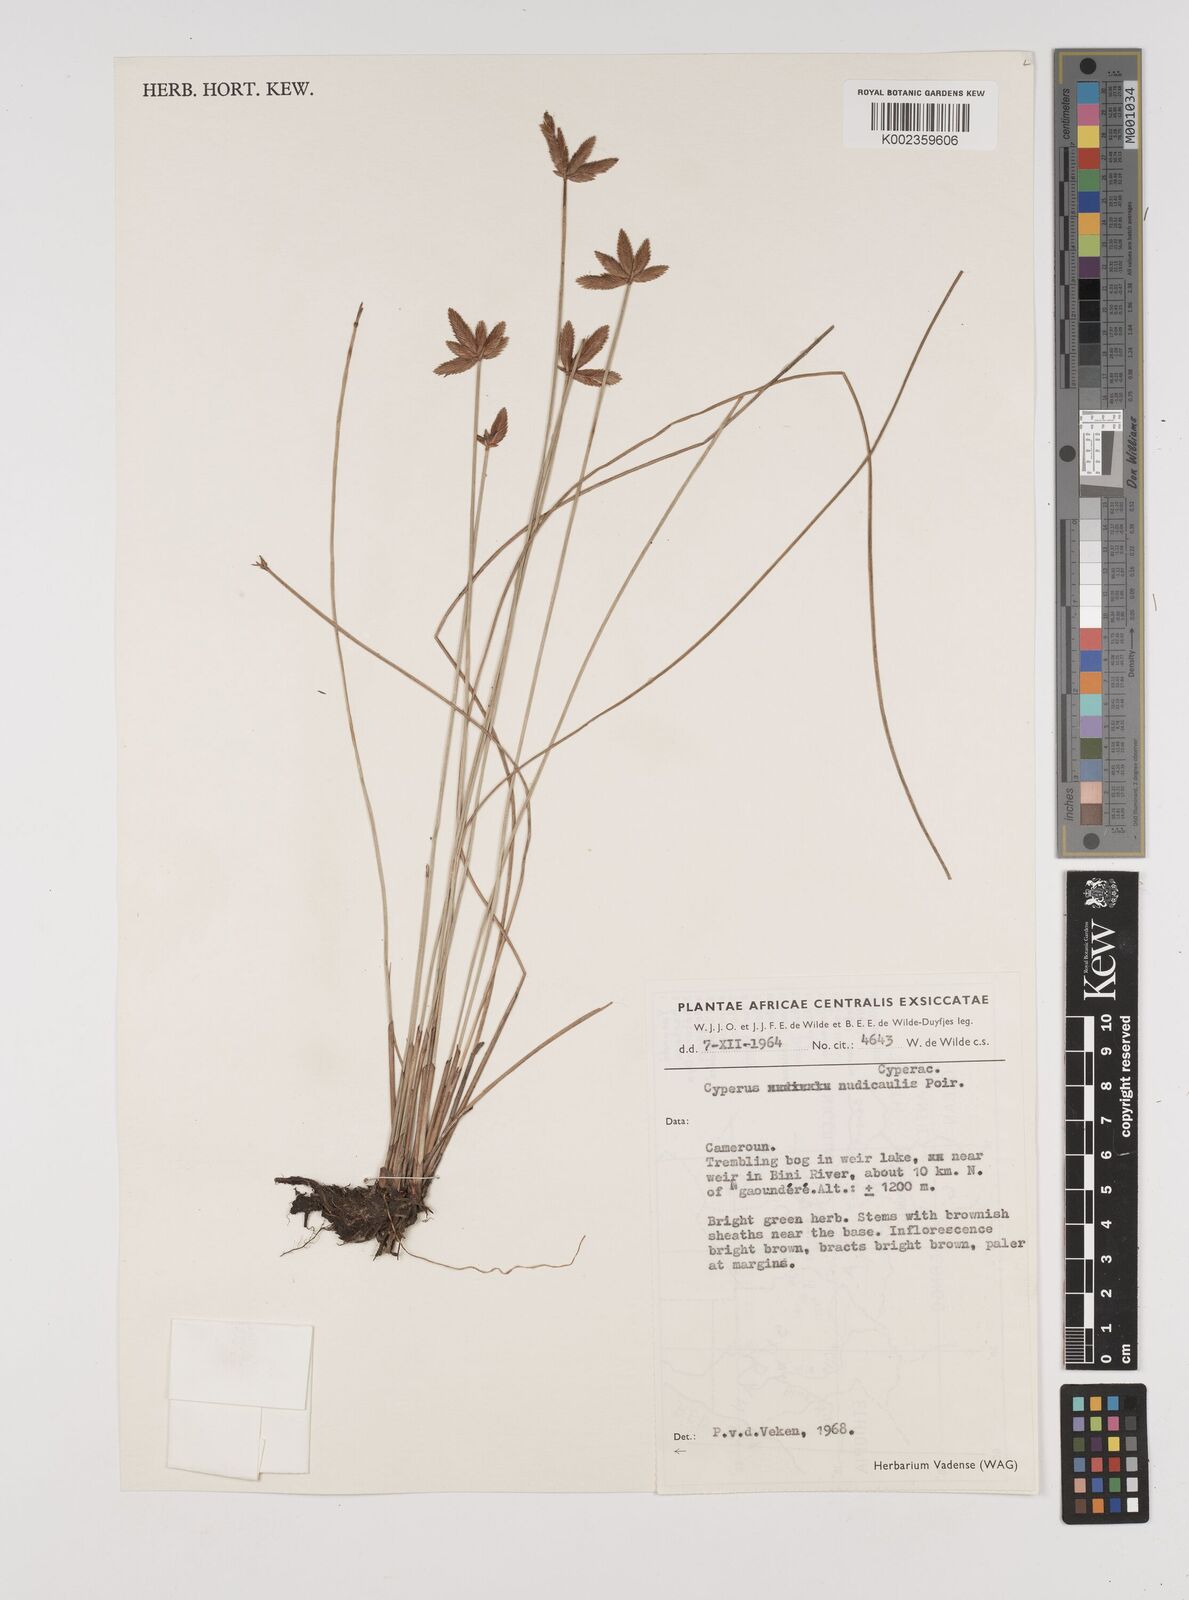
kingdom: Plantae
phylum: Tracheophyta
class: Liliopsida
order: Poales
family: Cyperaceae
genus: Cyperus
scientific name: Cyperus pectinatus
